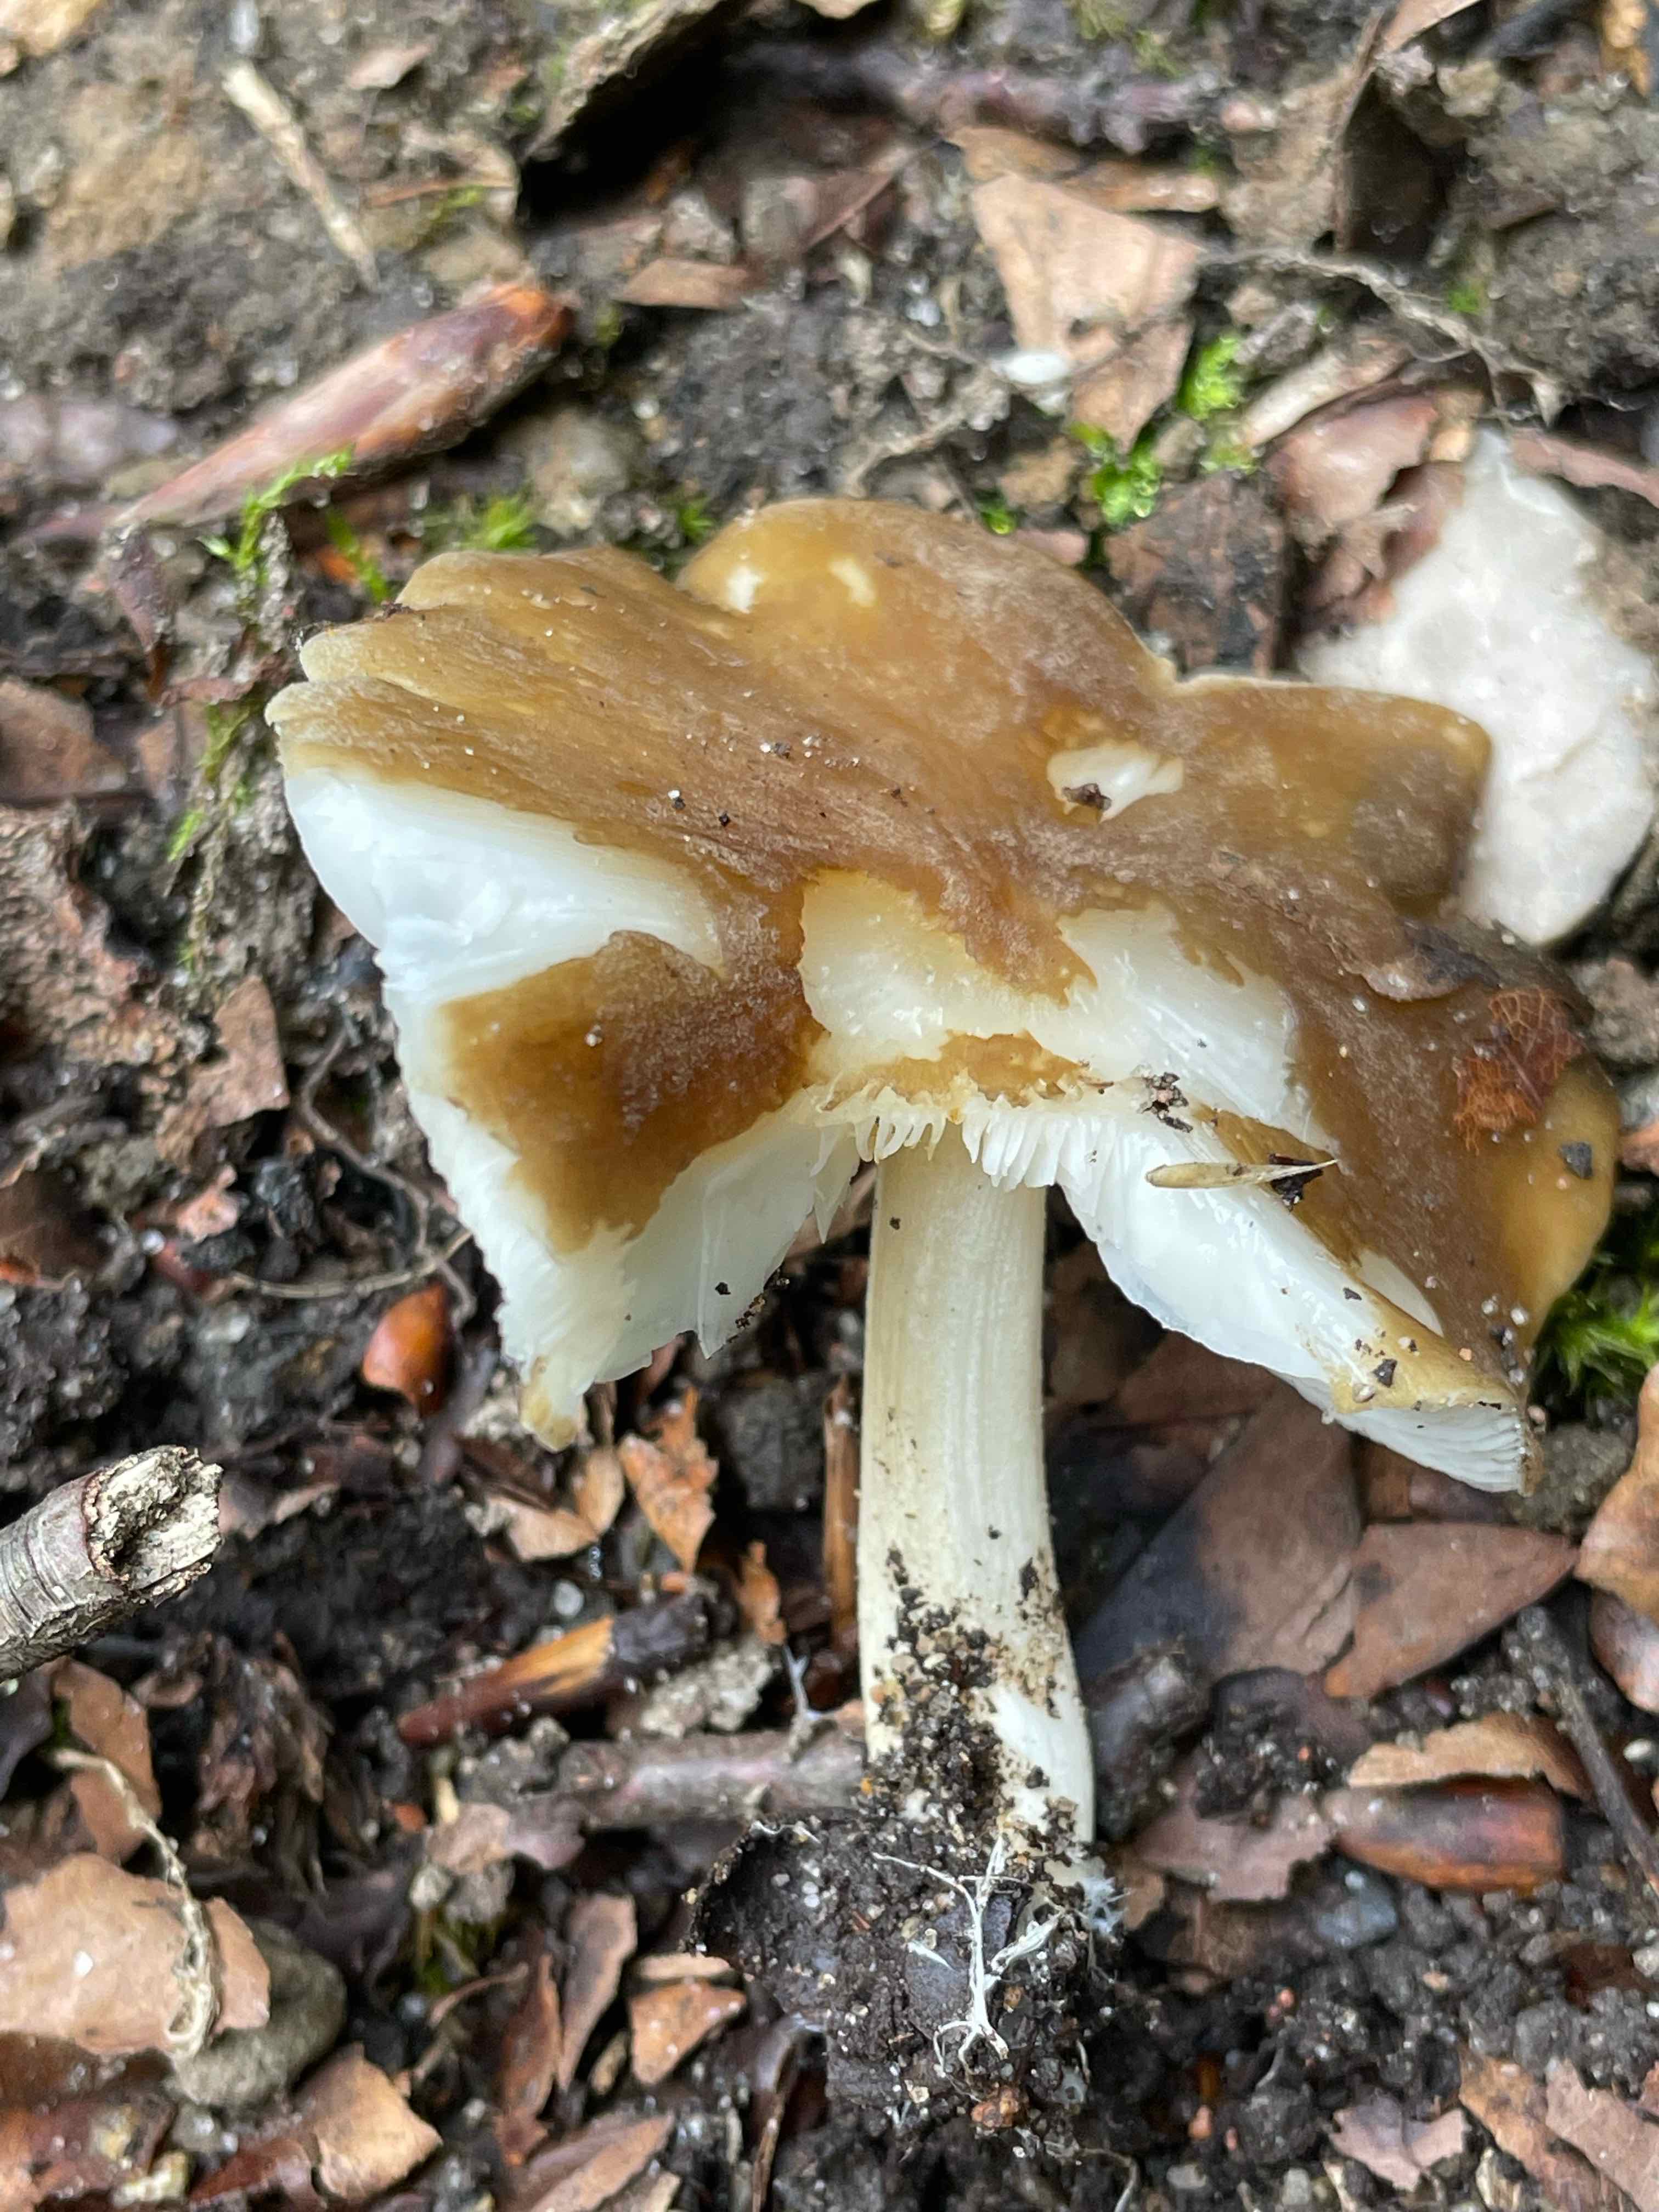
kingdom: Fungi
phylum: Basidiomycota
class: Agaricomycetes
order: Agaricales
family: Tricholomataceae
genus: Megacollybia
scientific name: Megacollybia platyphylla
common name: bredbladet væbnerhat
